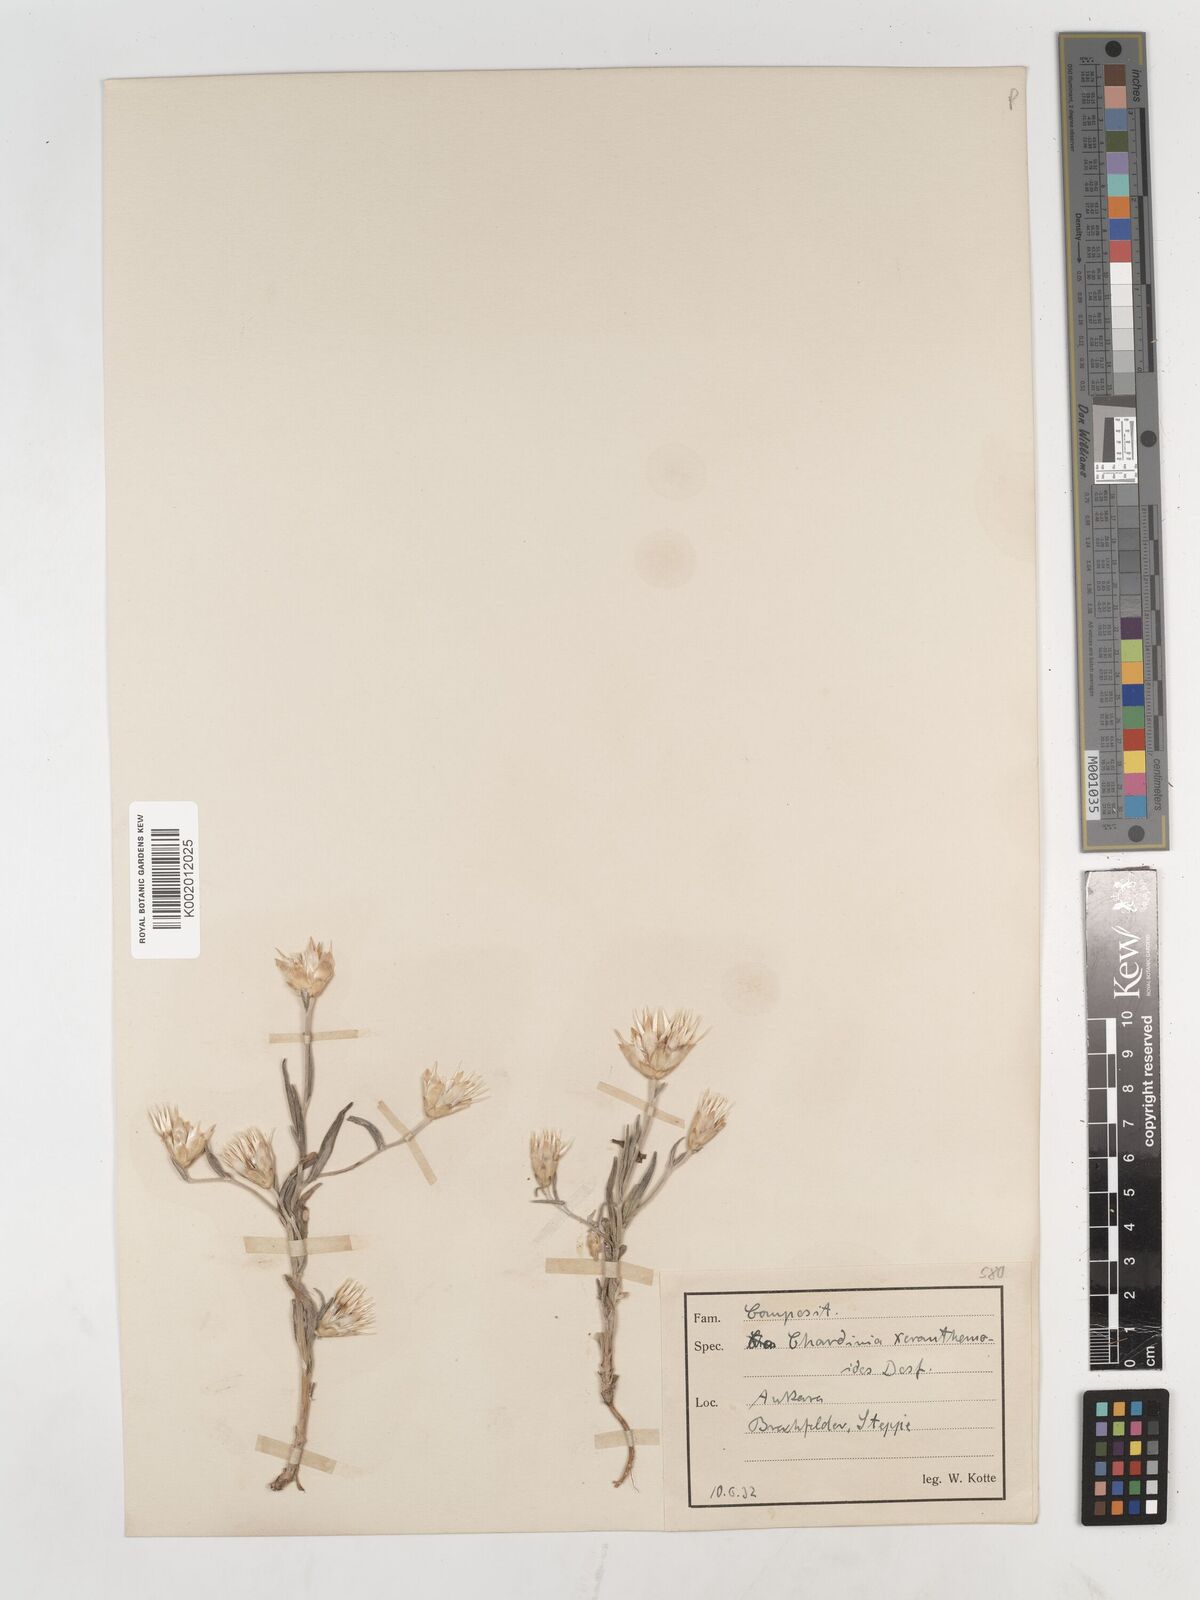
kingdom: Plantae
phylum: Tracheophyta
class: Magnoliopsida
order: Asterales
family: Asteraceae
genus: Chardinia
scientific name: Chardinia orientalis
